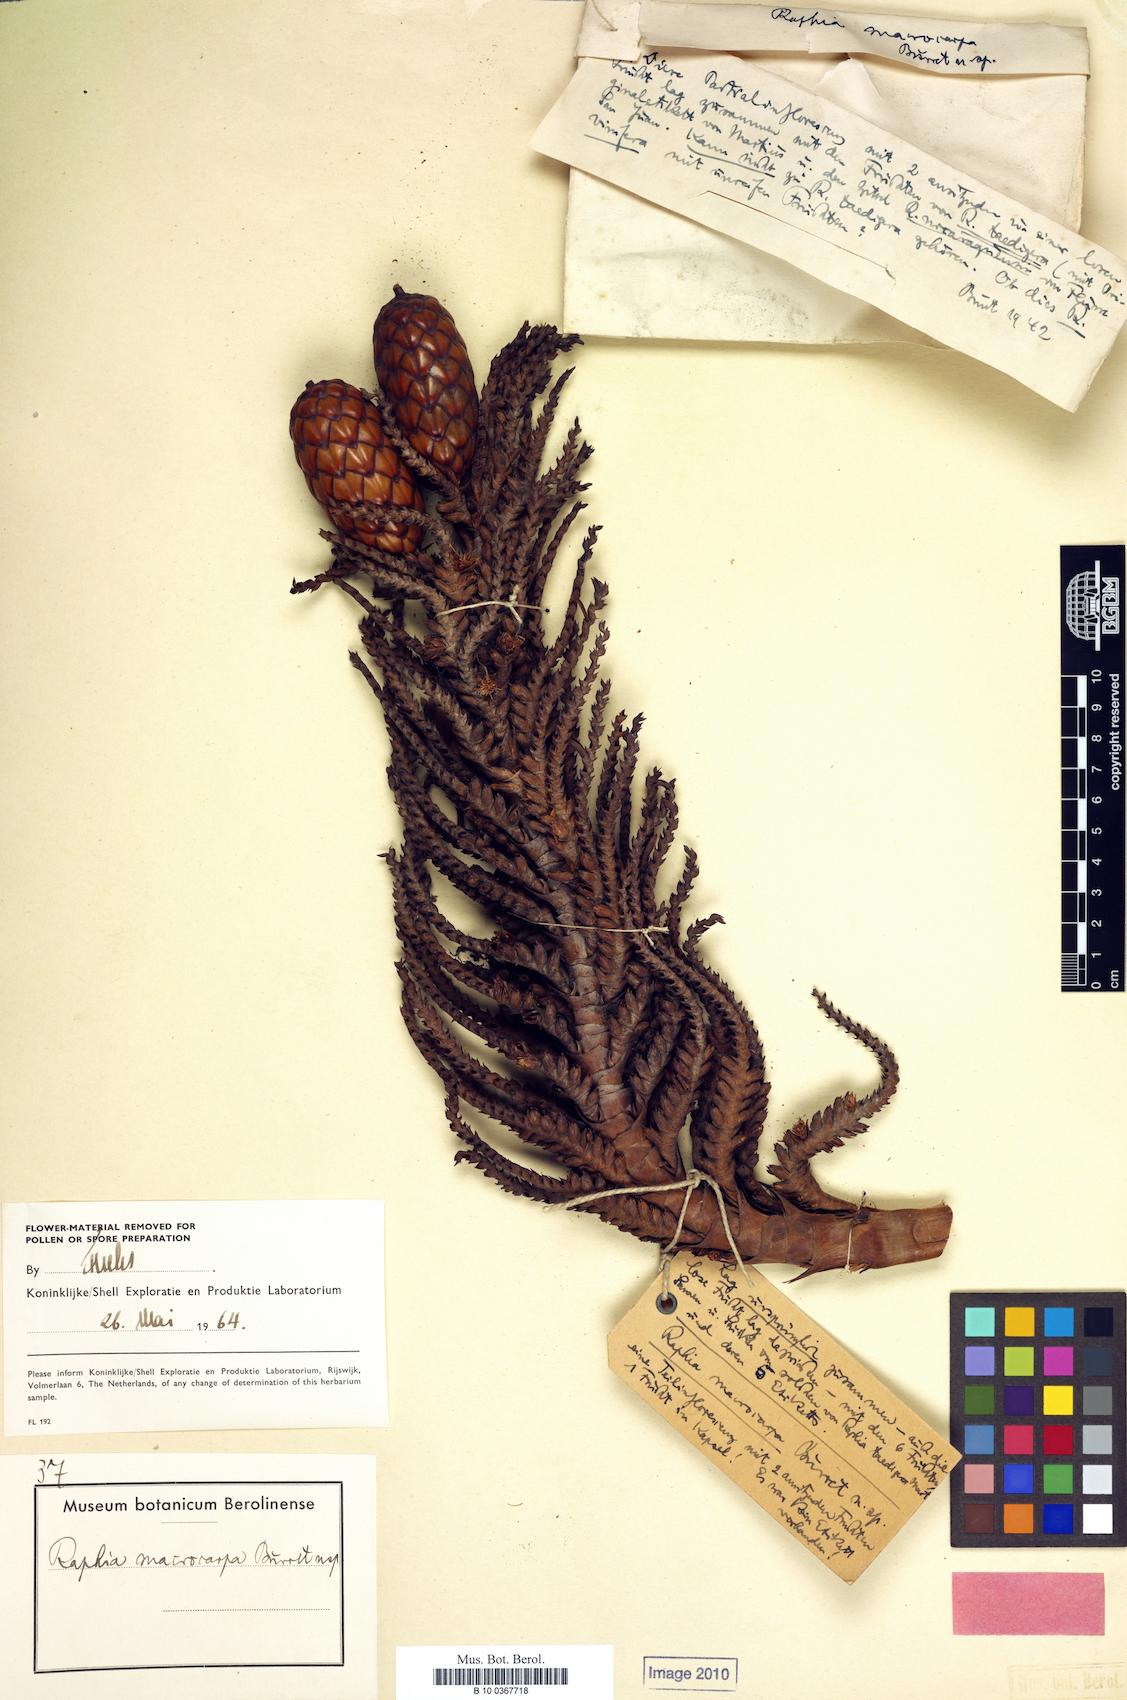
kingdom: Plantae
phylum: Tracheophyta
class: Liliopsida
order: Arecales
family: Arecaceae
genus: Raphia
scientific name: Raphia matombe
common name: Raphia palm
